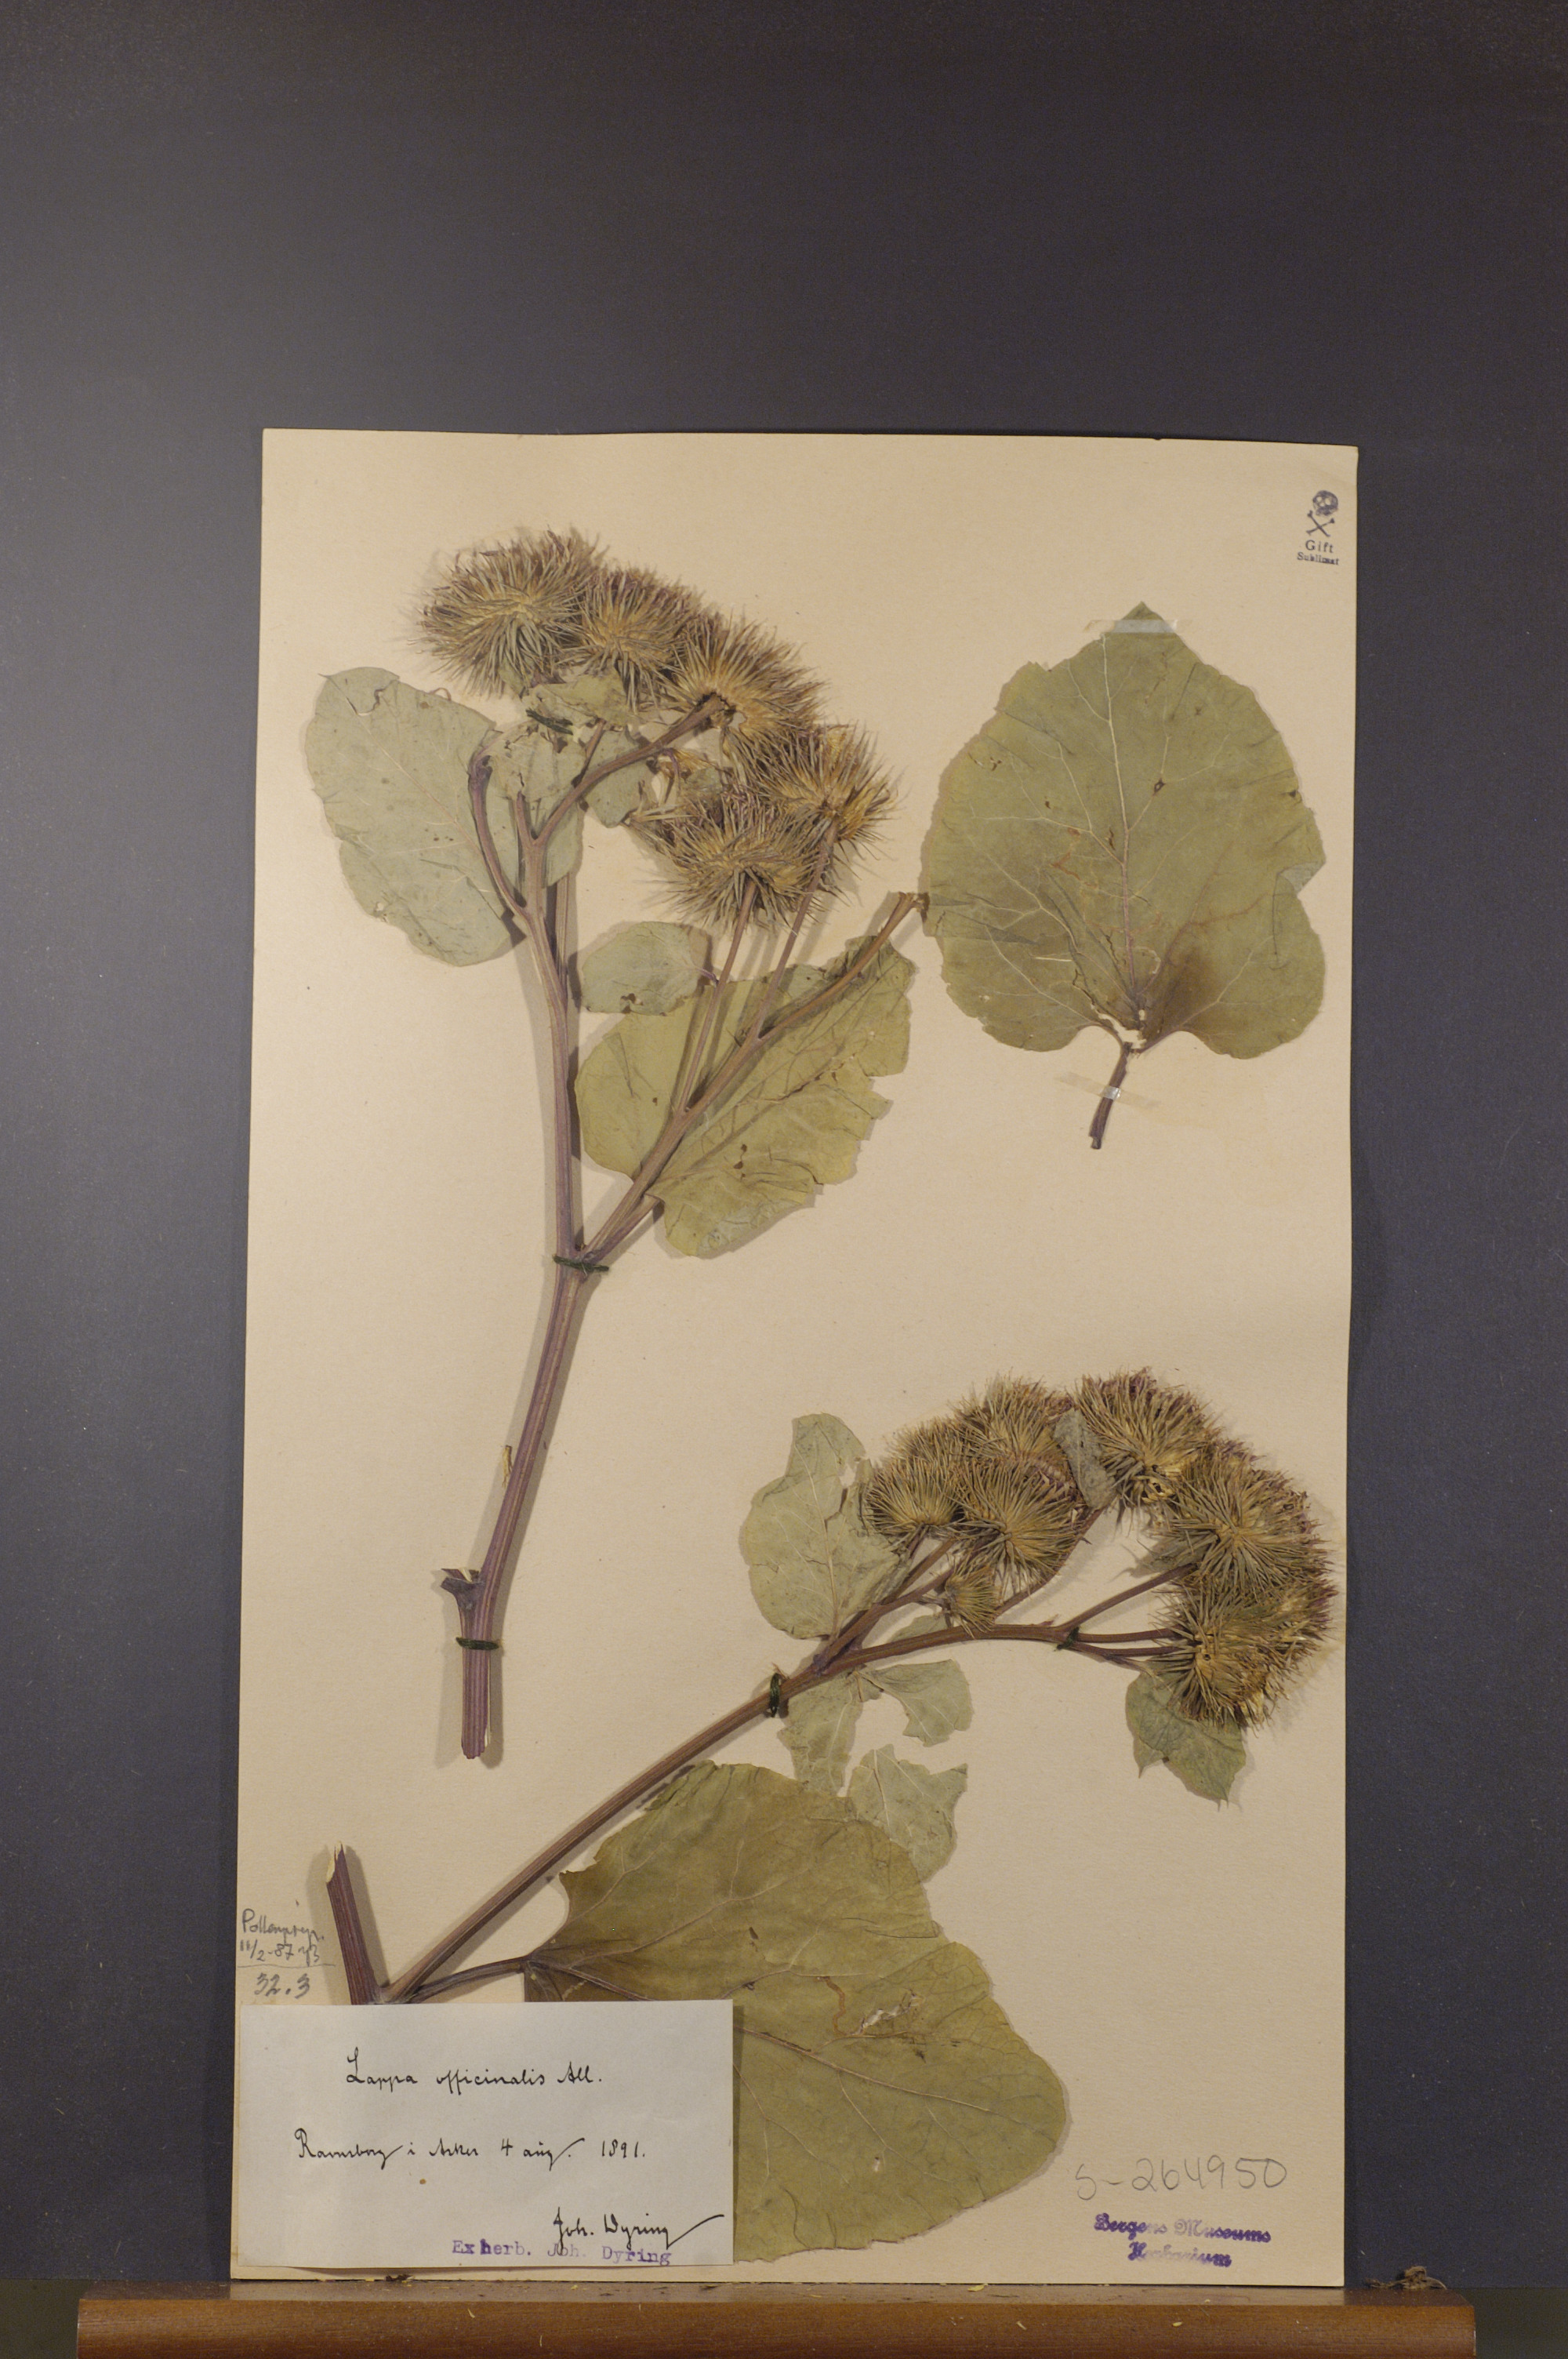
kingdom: Plantae
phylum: Tracheophyta
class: Magnoliopsida
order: Asterales
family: Asteraceae
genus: Arctium
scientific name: Arctium lappa
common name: Greater burdock
